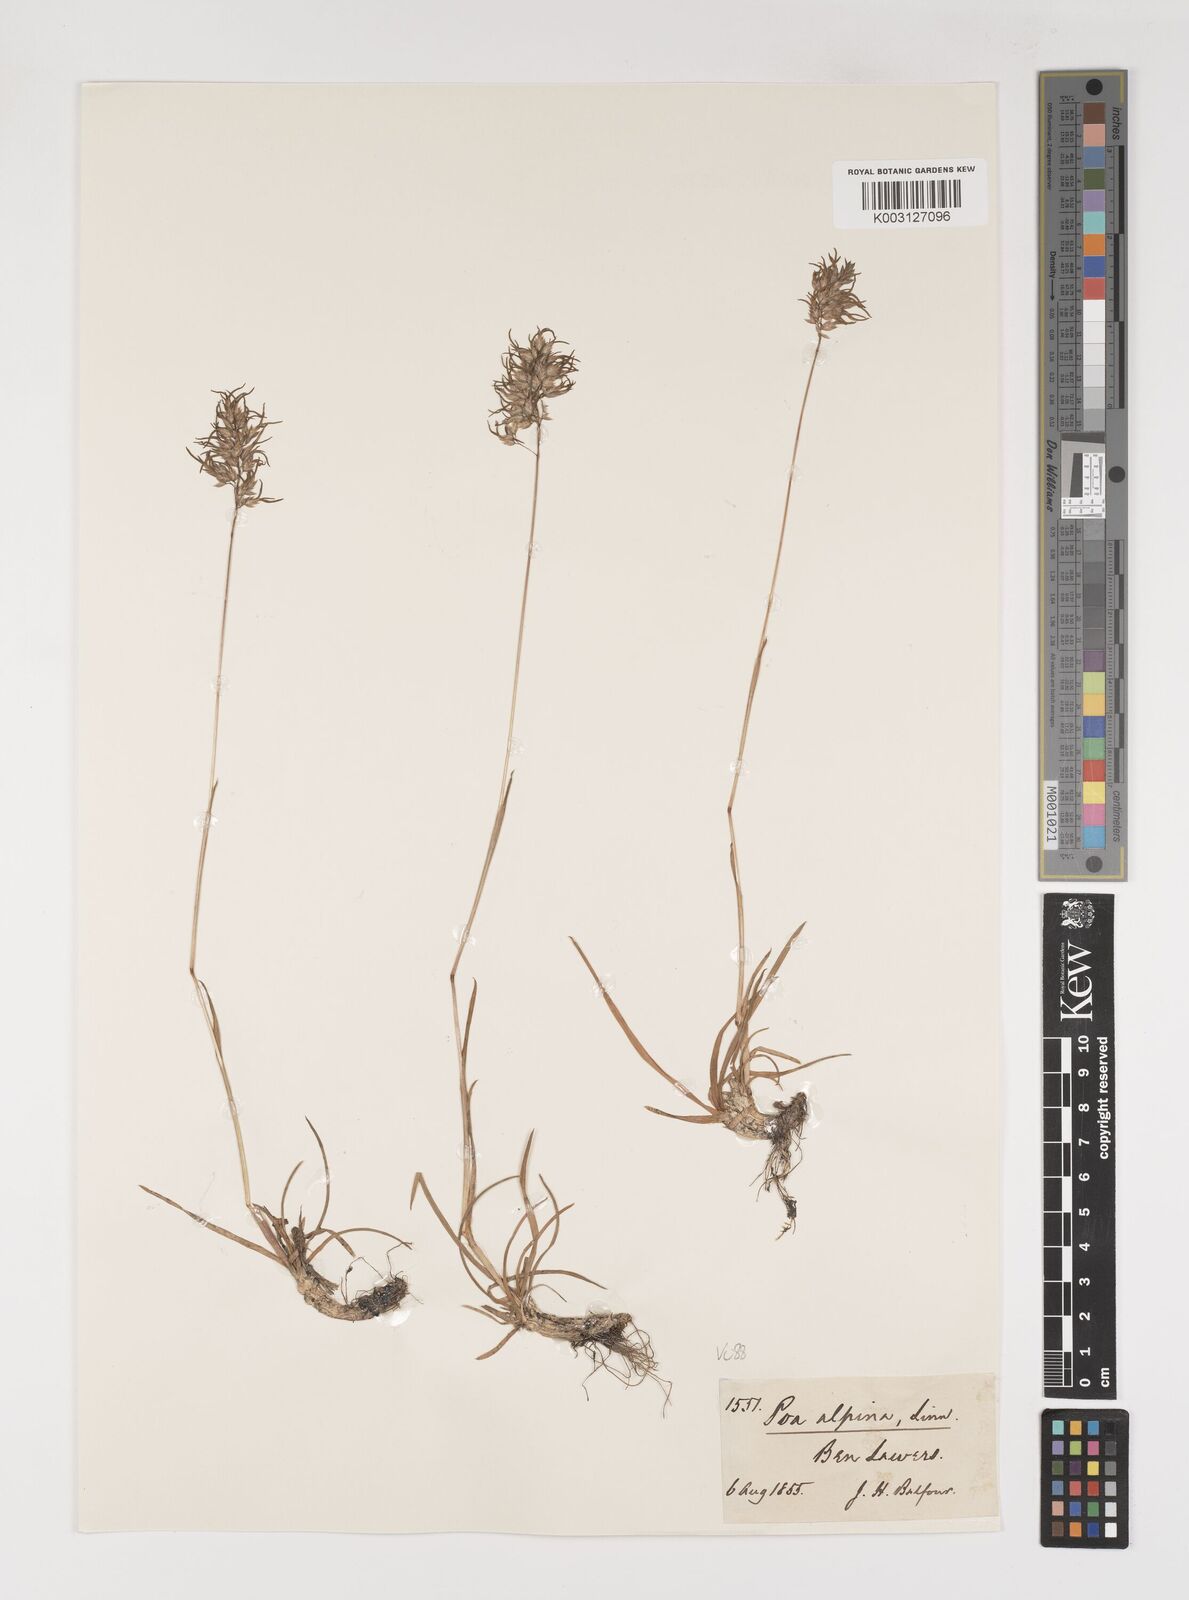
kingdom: Plantae
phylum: Tracheophyta
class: Liliopsida
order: Poales
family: Poaceae
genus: Poa
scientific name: Poa alpina
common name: Alpine bluegrass
